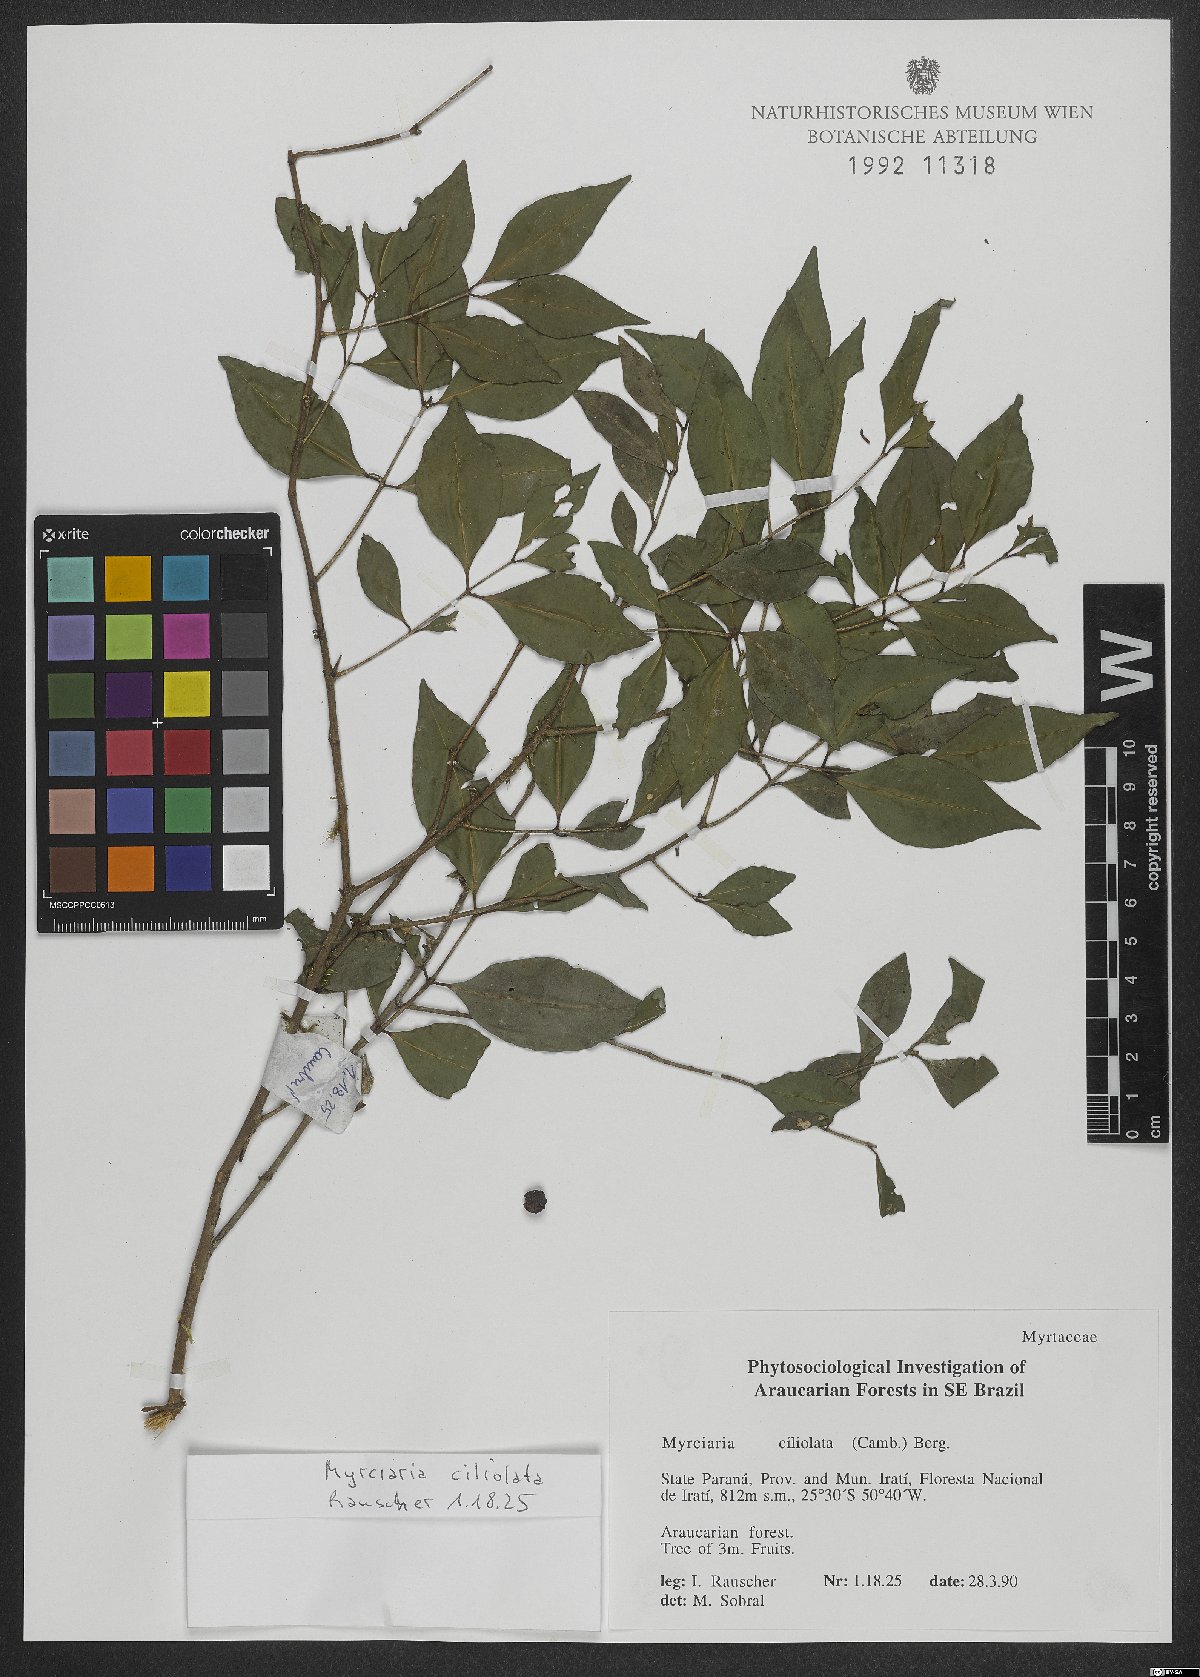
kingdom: Plantae
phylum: Tracheophyta
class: Magnoliopsida
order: Myrtales
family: Myrtaceae
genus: Myrciaria
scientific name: Myrciaria ciliolata
